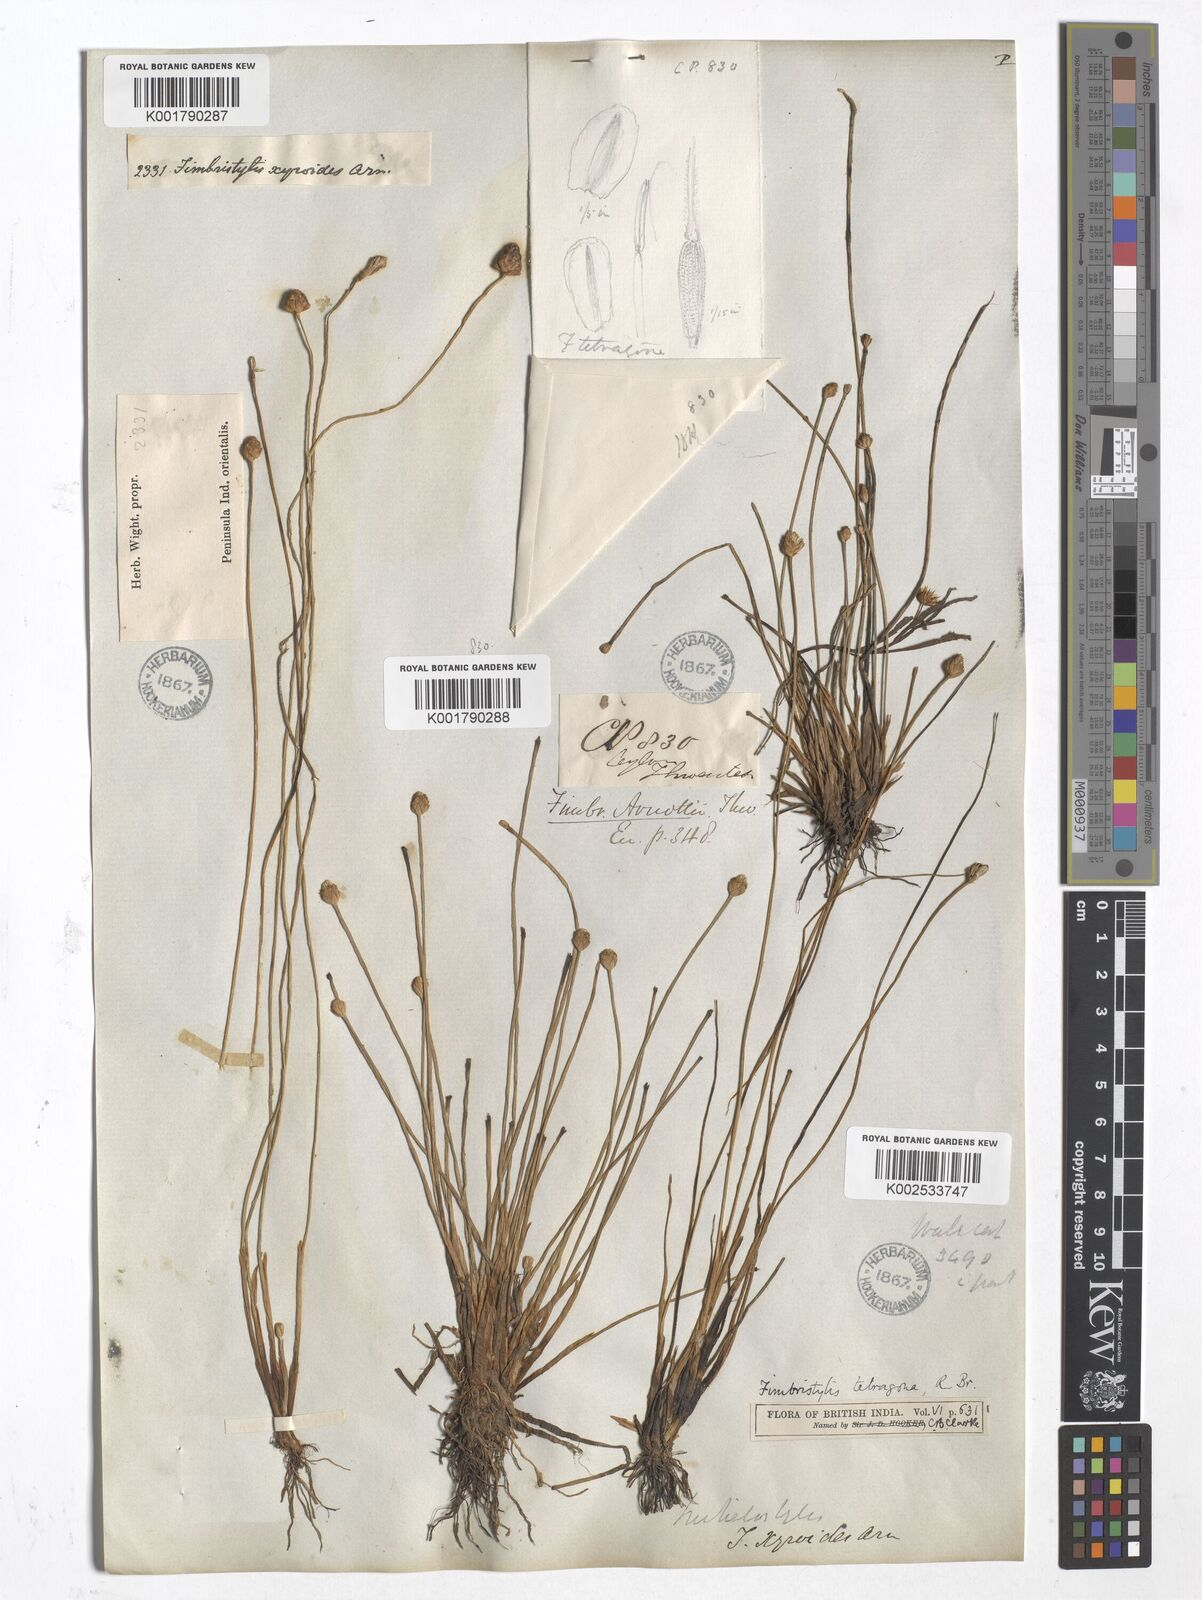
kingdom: Plantae
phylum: Tracheophyta
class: Liliopsida
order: Poales
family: Cyperaceae
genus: Fimbristylis
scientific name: Fimbristylis tetragona
